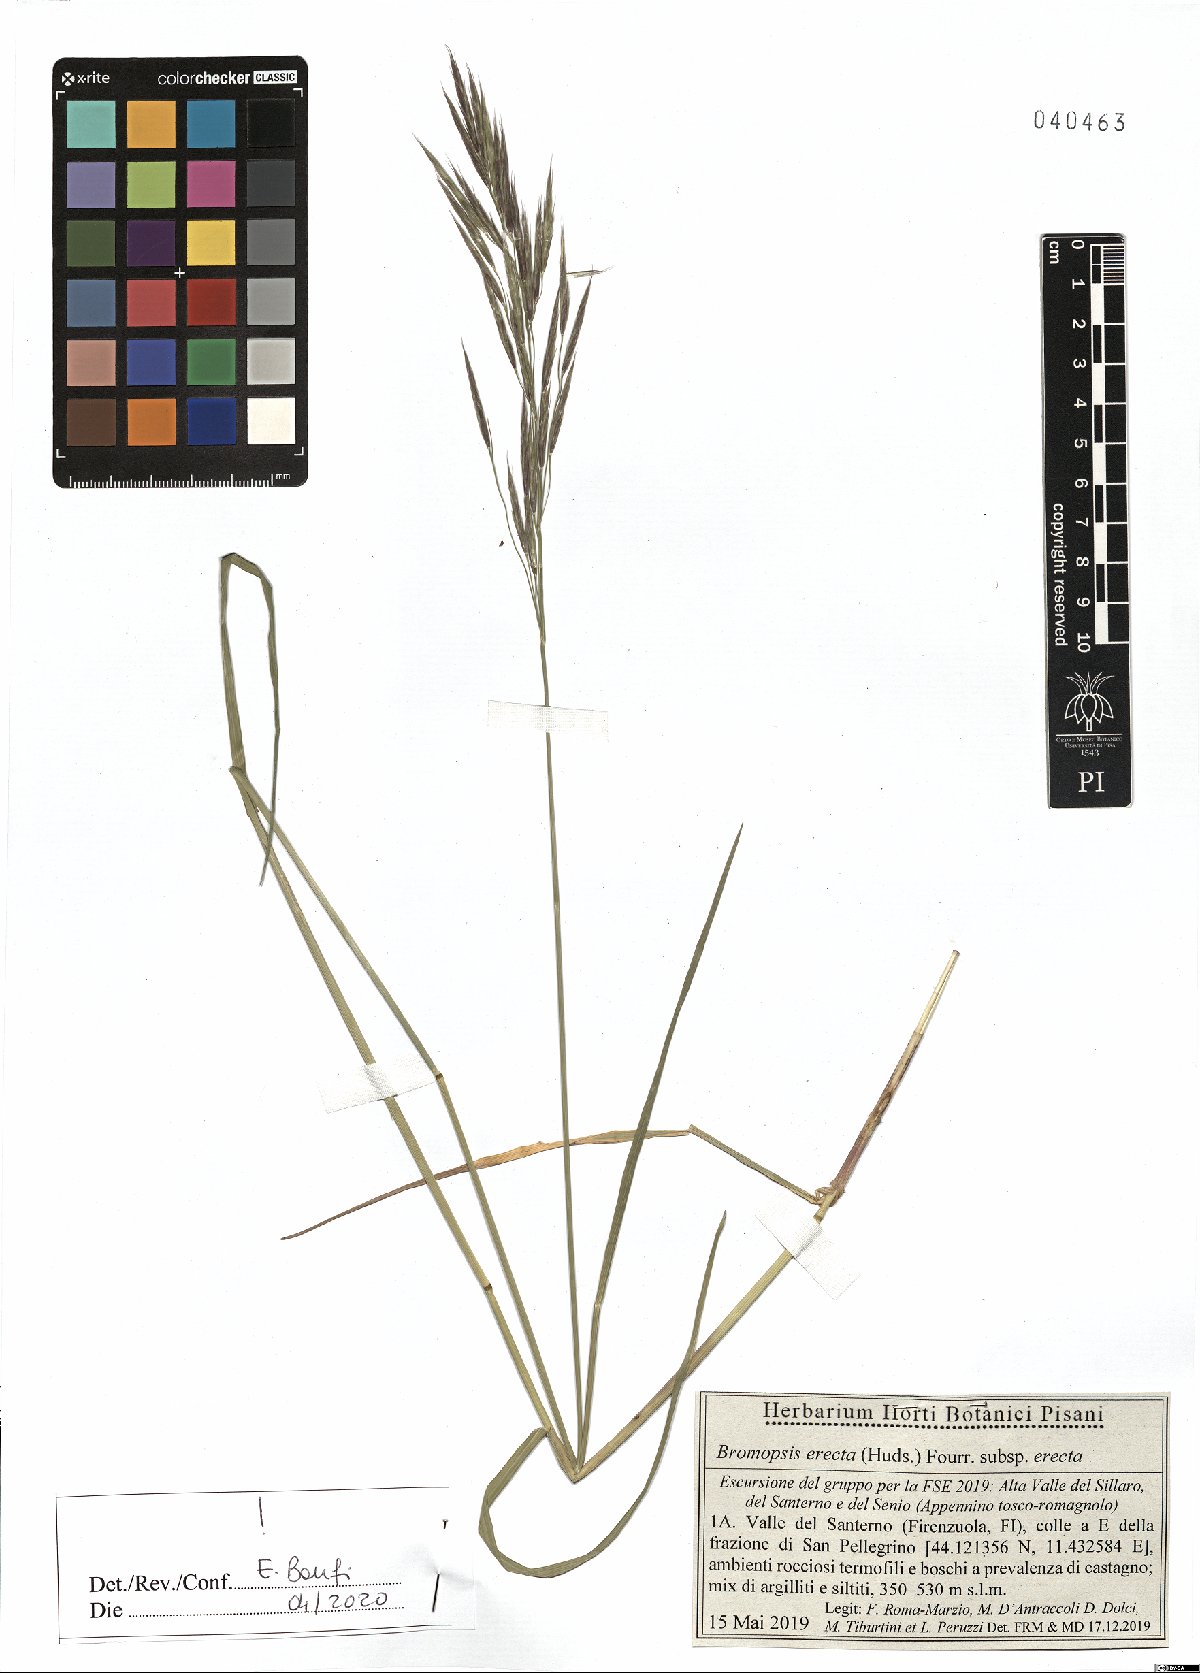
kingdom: Plantae
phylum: Tracheophyta
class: Liliopsida
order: Poales
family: Poaceae
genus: Bromus
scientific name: Bromus erectus
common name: Erect brome
